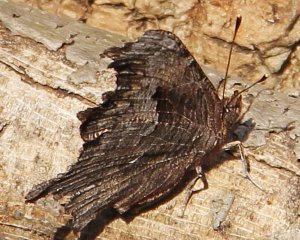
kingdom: Animalia
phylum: Arthropoda
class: Insecta
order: Lepidoptera
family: Nymphalidae
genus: Polygonia
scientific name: Polygonia progne
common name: Gray Comma
